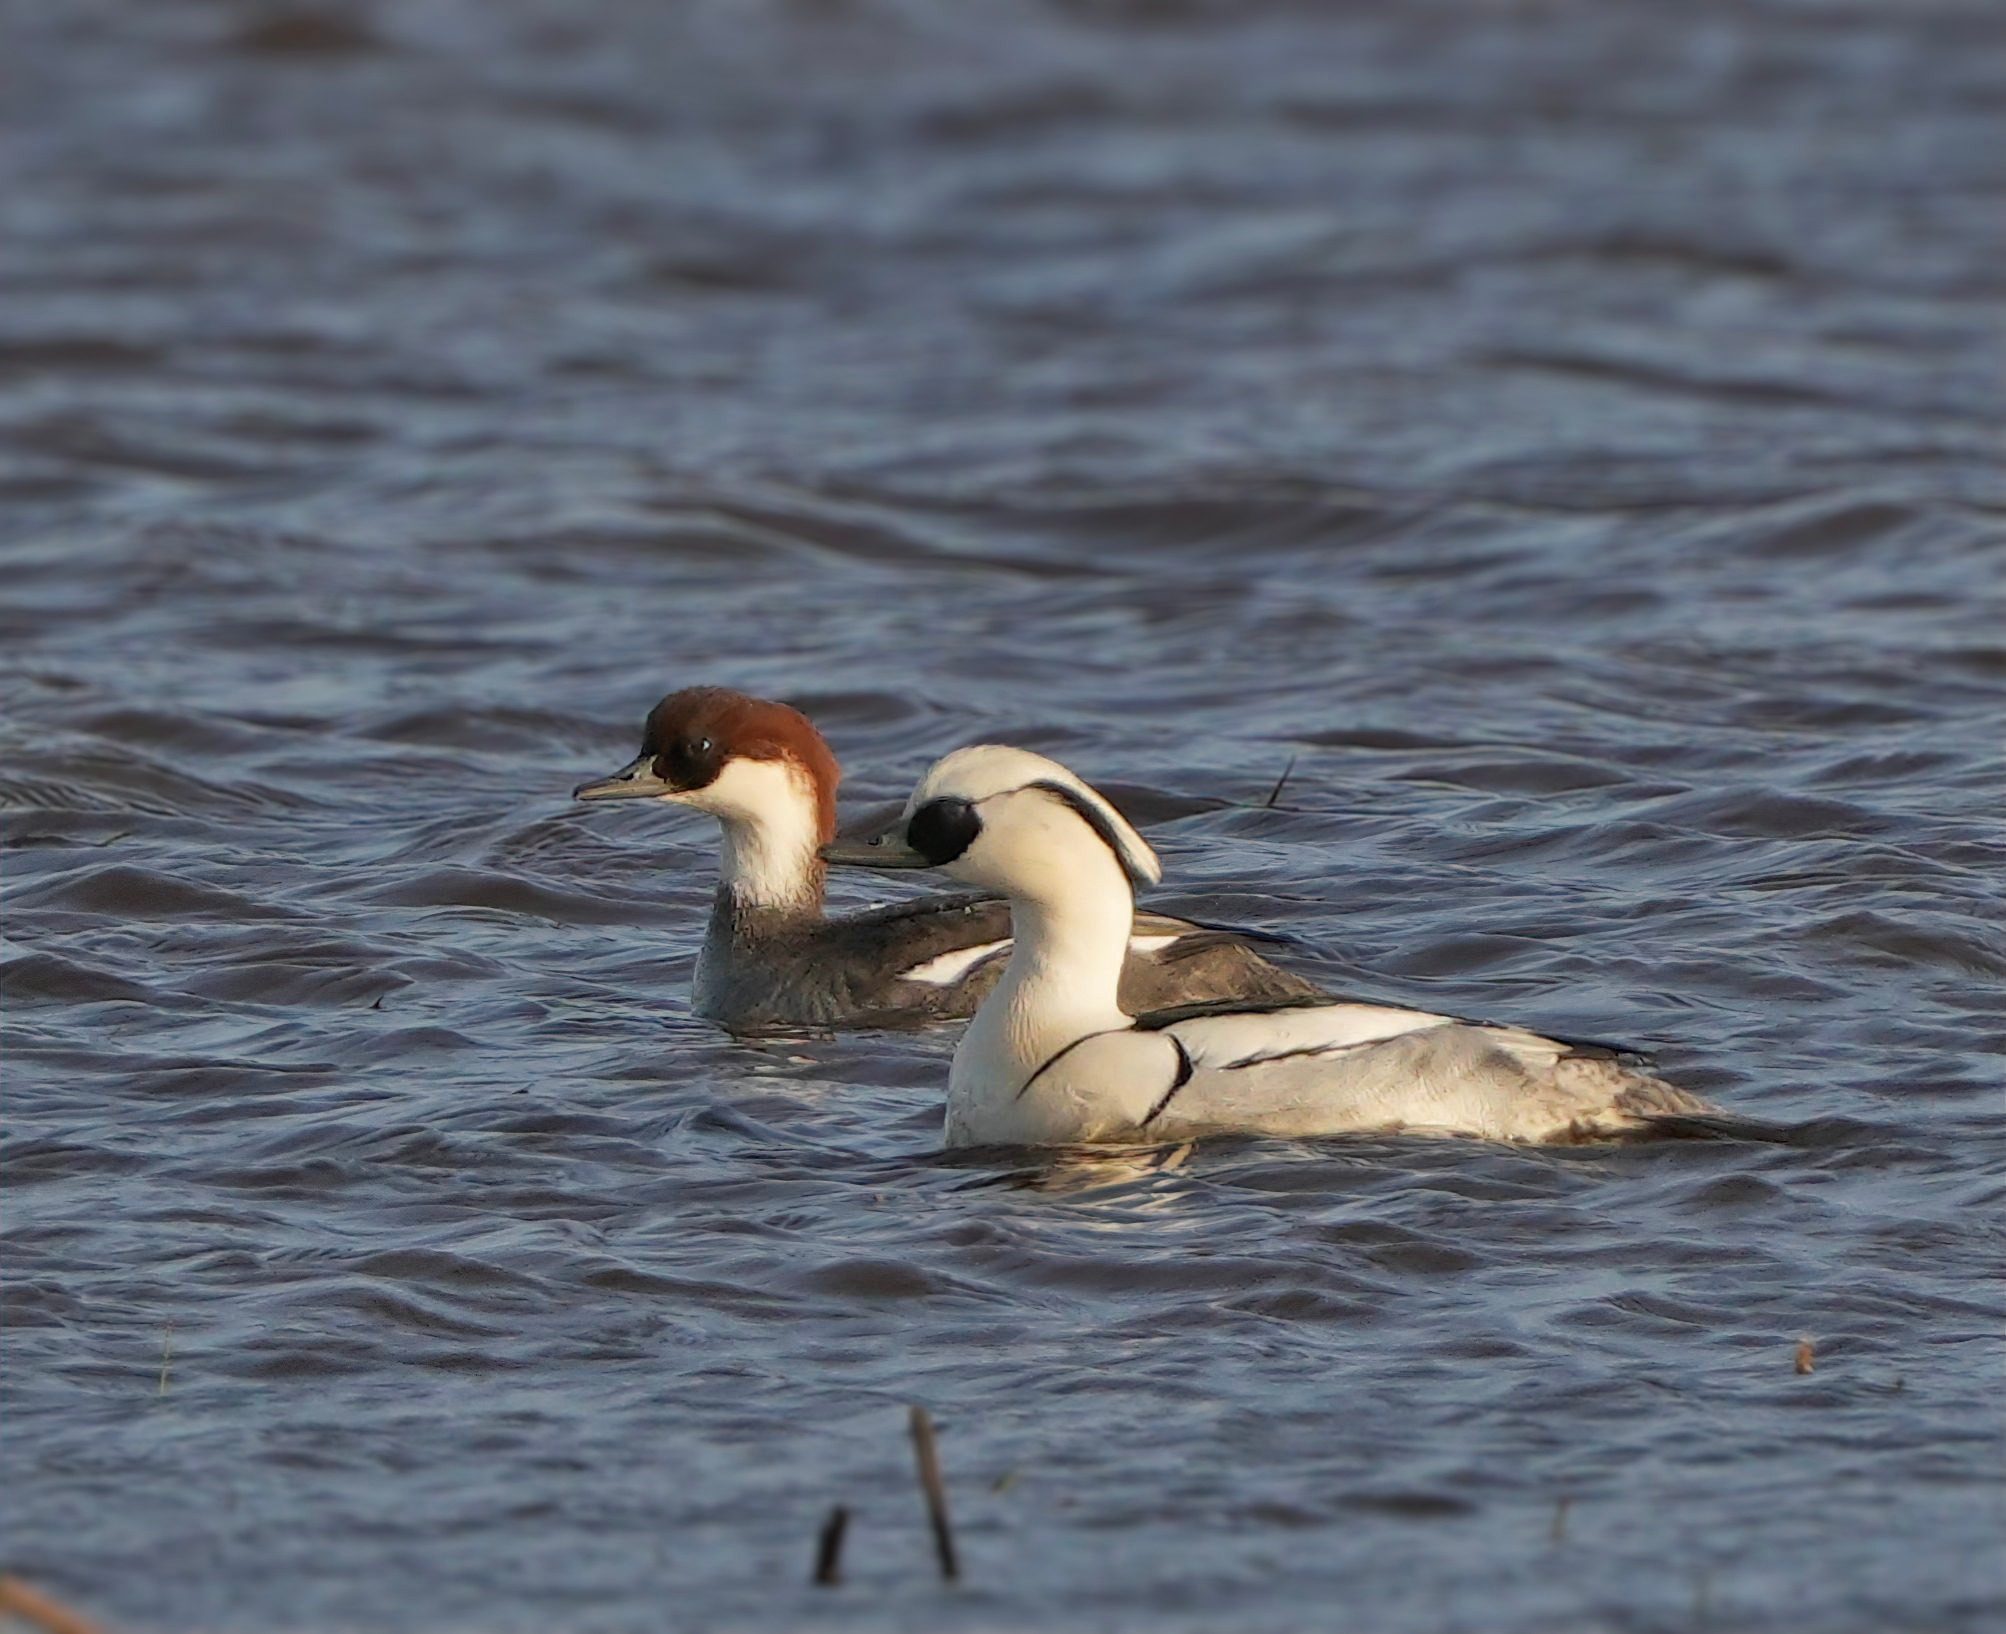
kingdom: Animalia
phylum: Chordata
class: Aves
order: Anseriformes
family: Anatidae
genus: Mergellus
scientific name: Mergellus albellus
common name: Lille skallesluger
